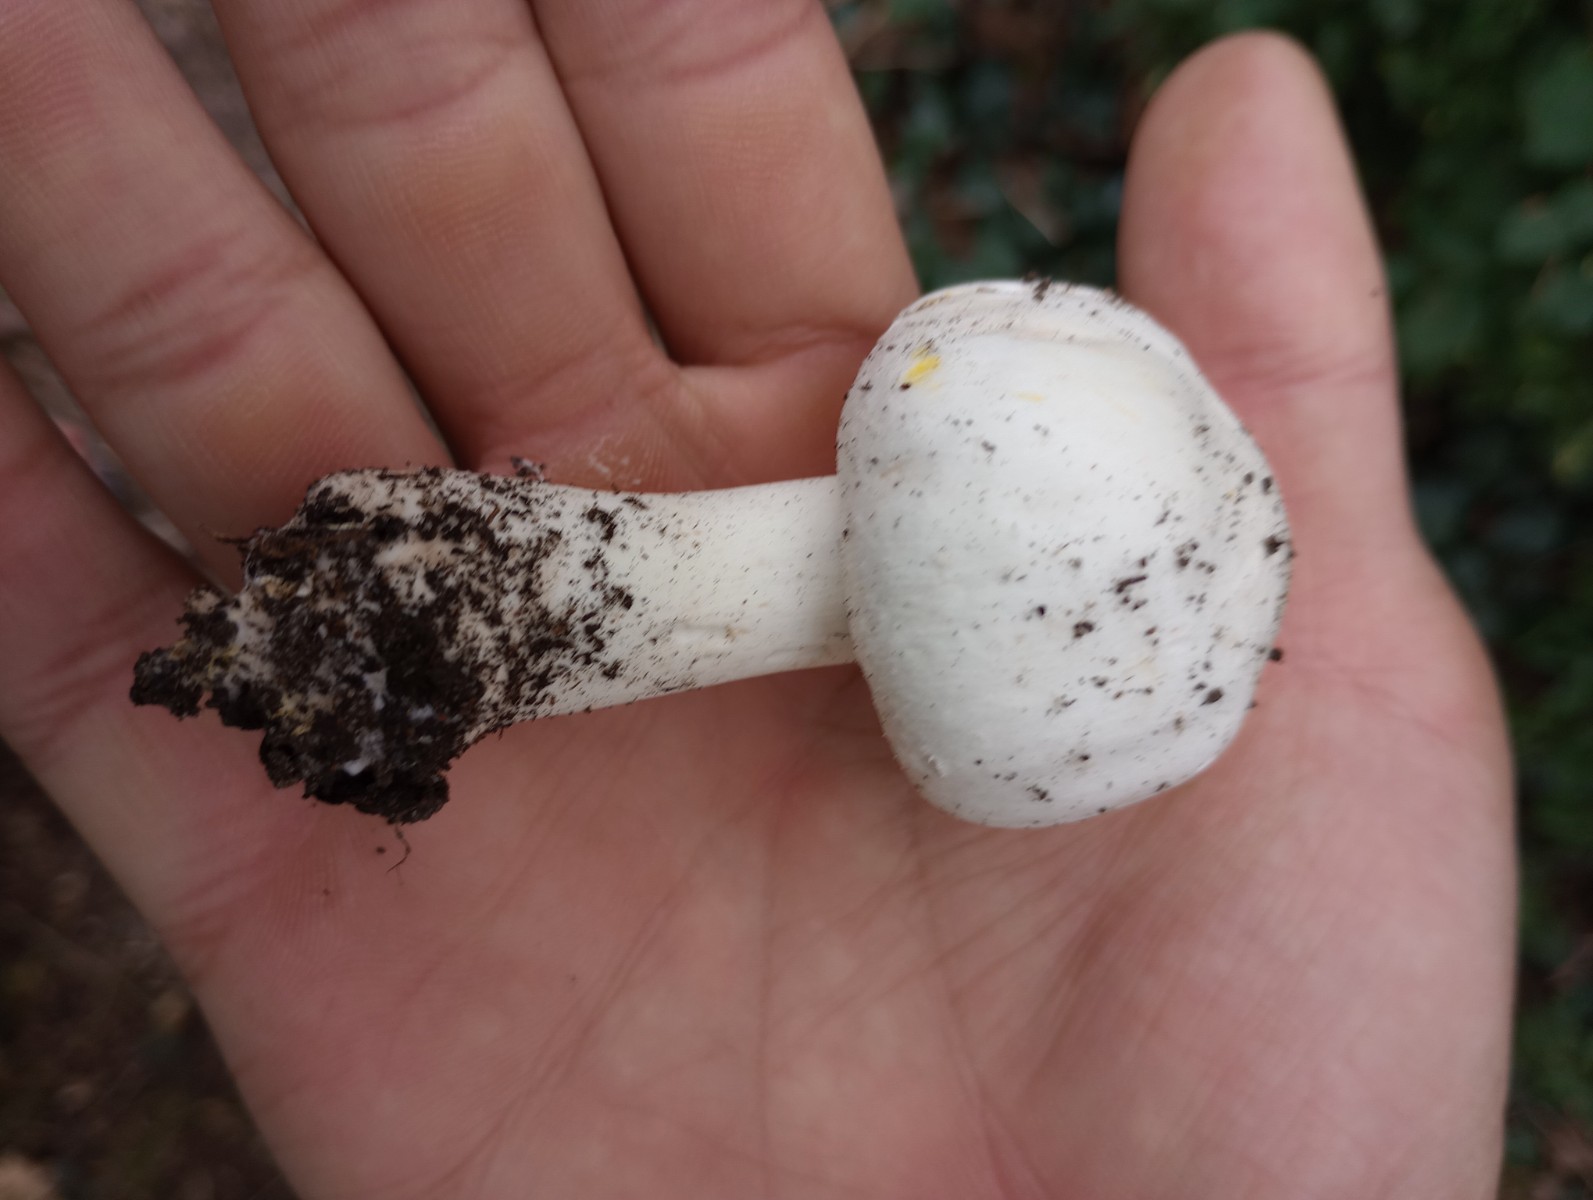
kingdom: Fungi
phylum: Basidiomycota
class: Agaricomycetes
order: Agaricales
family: Agaricaceae
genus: Agaricus
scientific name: Agaricus xanthodermus
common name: karbol-champignon
